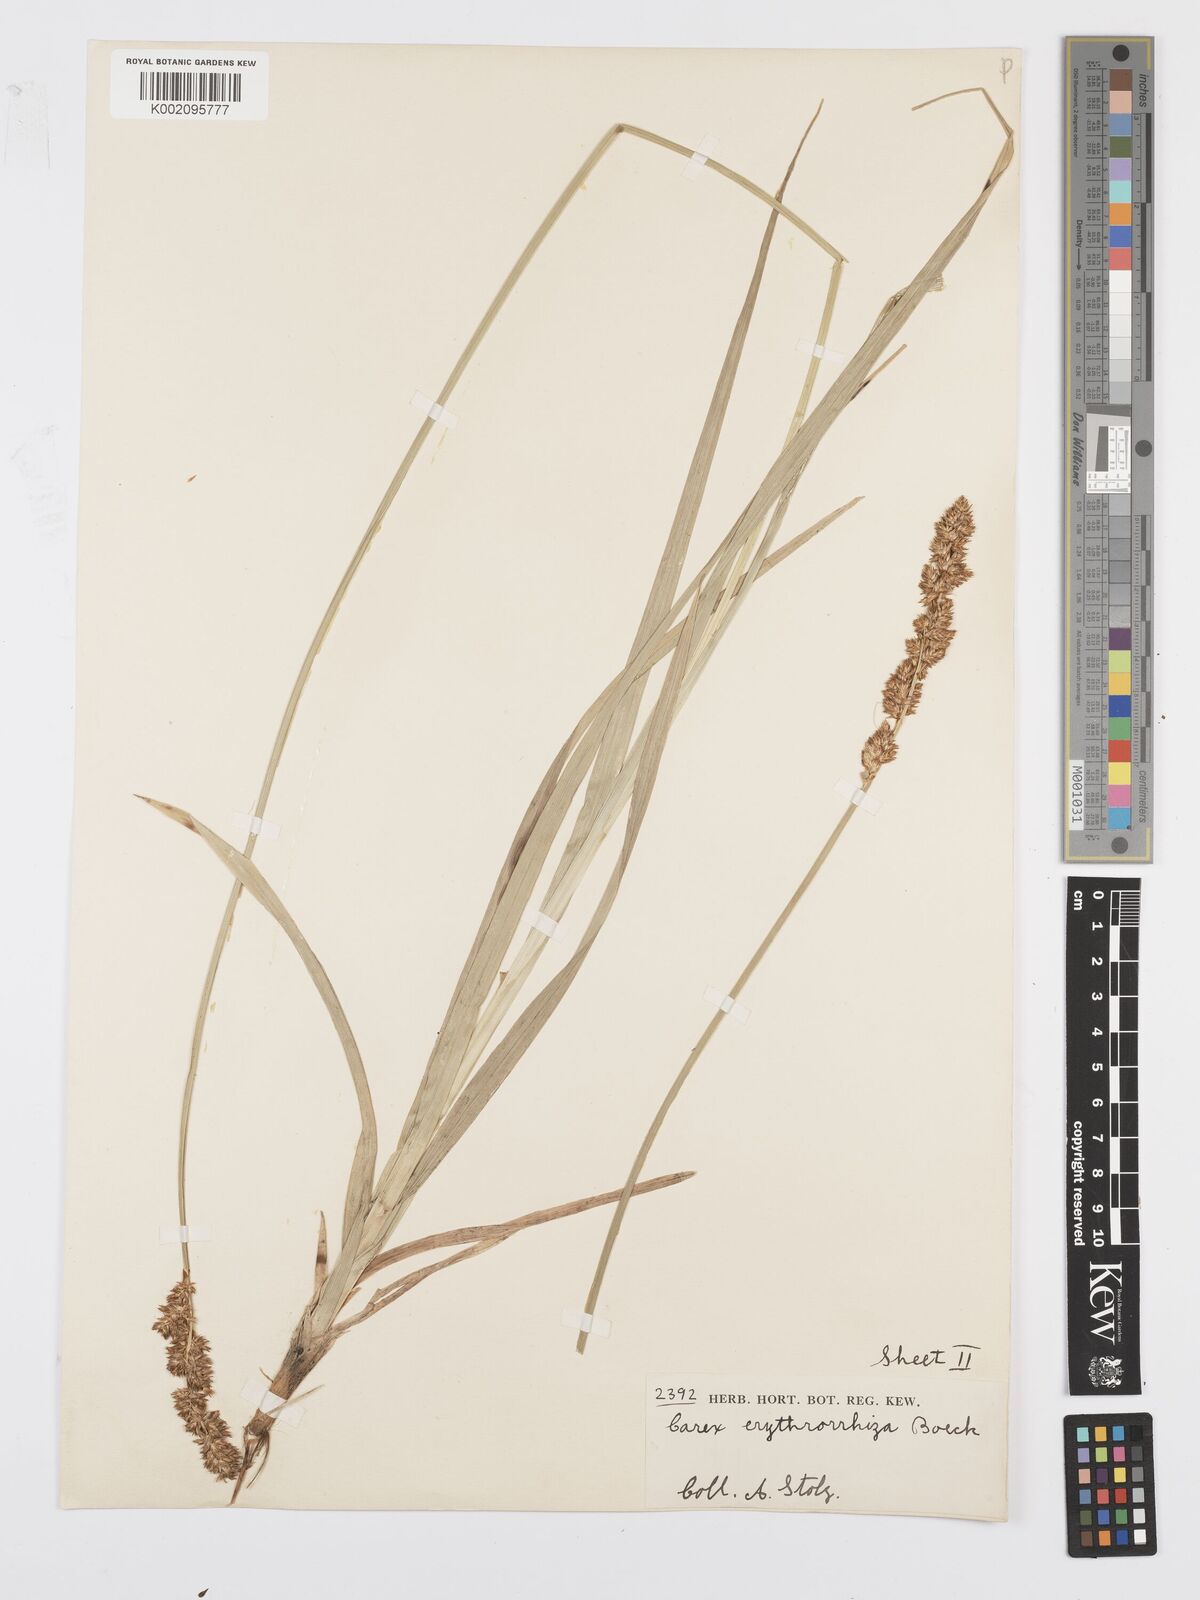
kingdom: Plantae
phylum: Tracheophyta
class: Liliopsida
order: Poales
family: Cyperaceae
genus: Carex
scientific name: Carex lycurus
